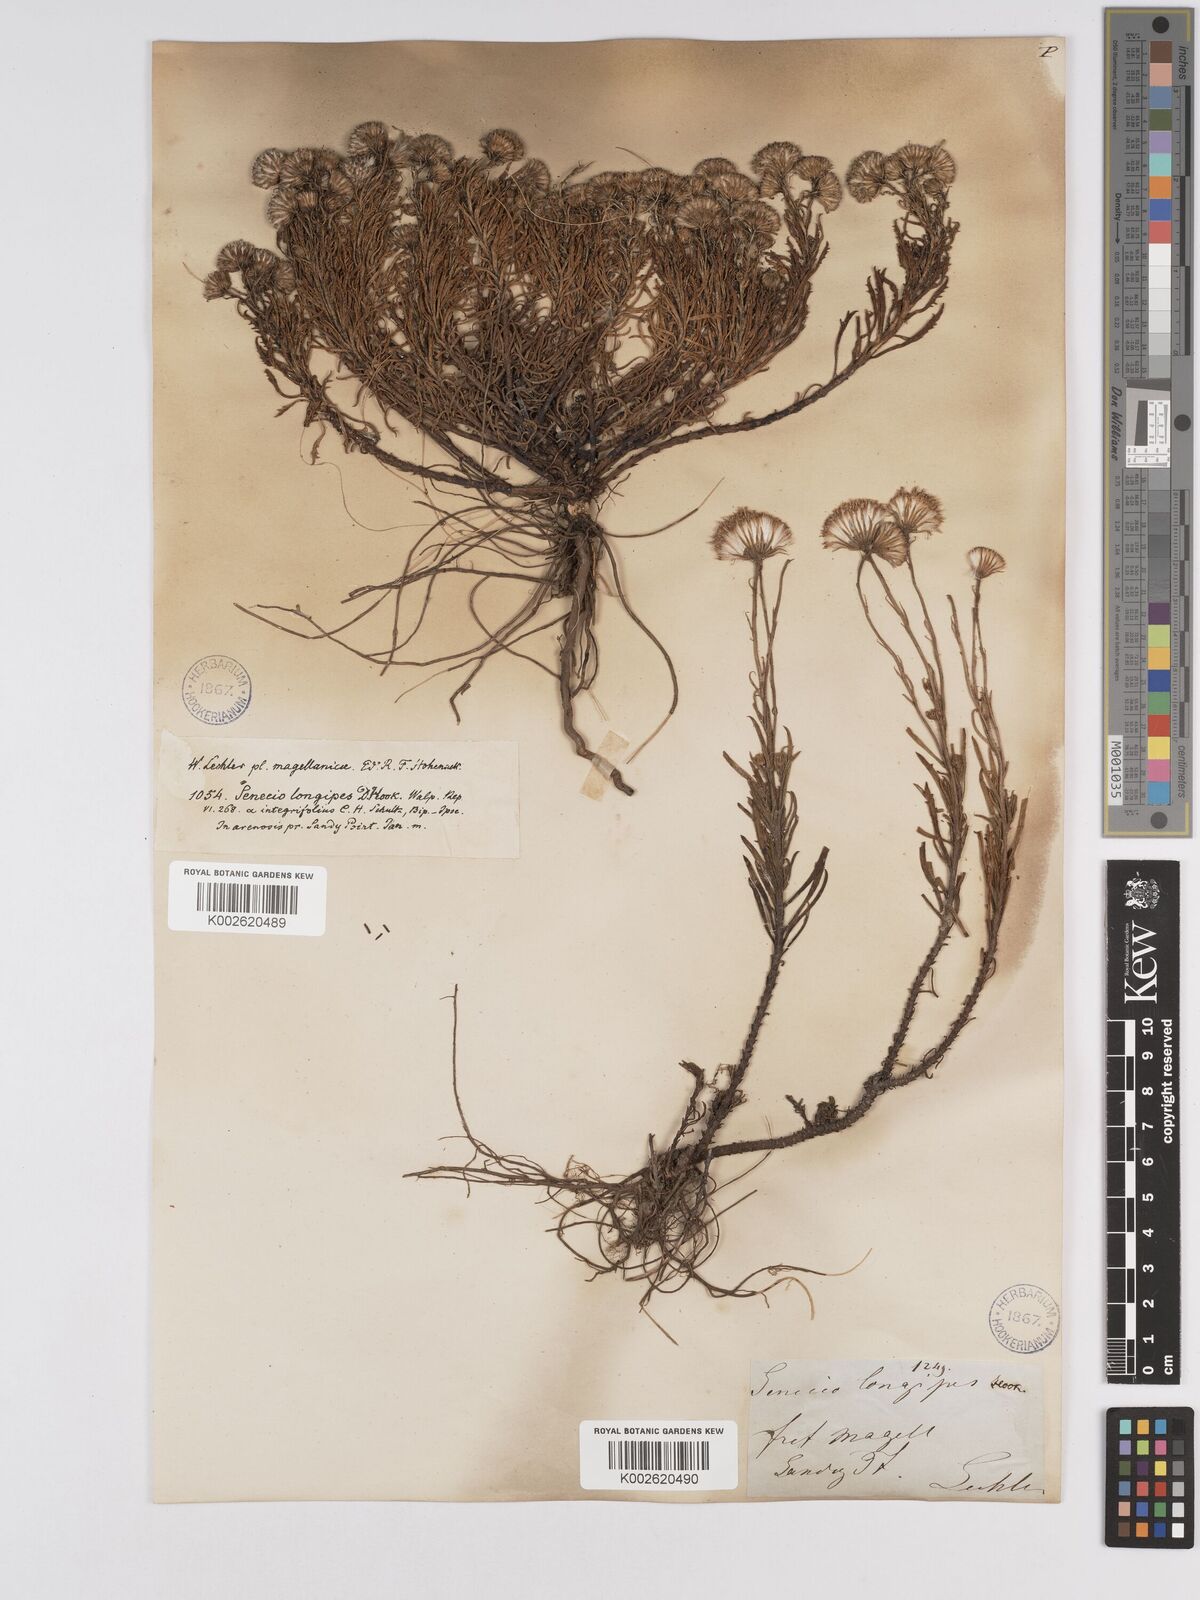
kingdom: Plantae
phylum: Tracheophyta
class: Magnoliopsida
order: Asterales
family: Asteraceae
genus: Senecio
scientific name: Senecio tricuspidatus
